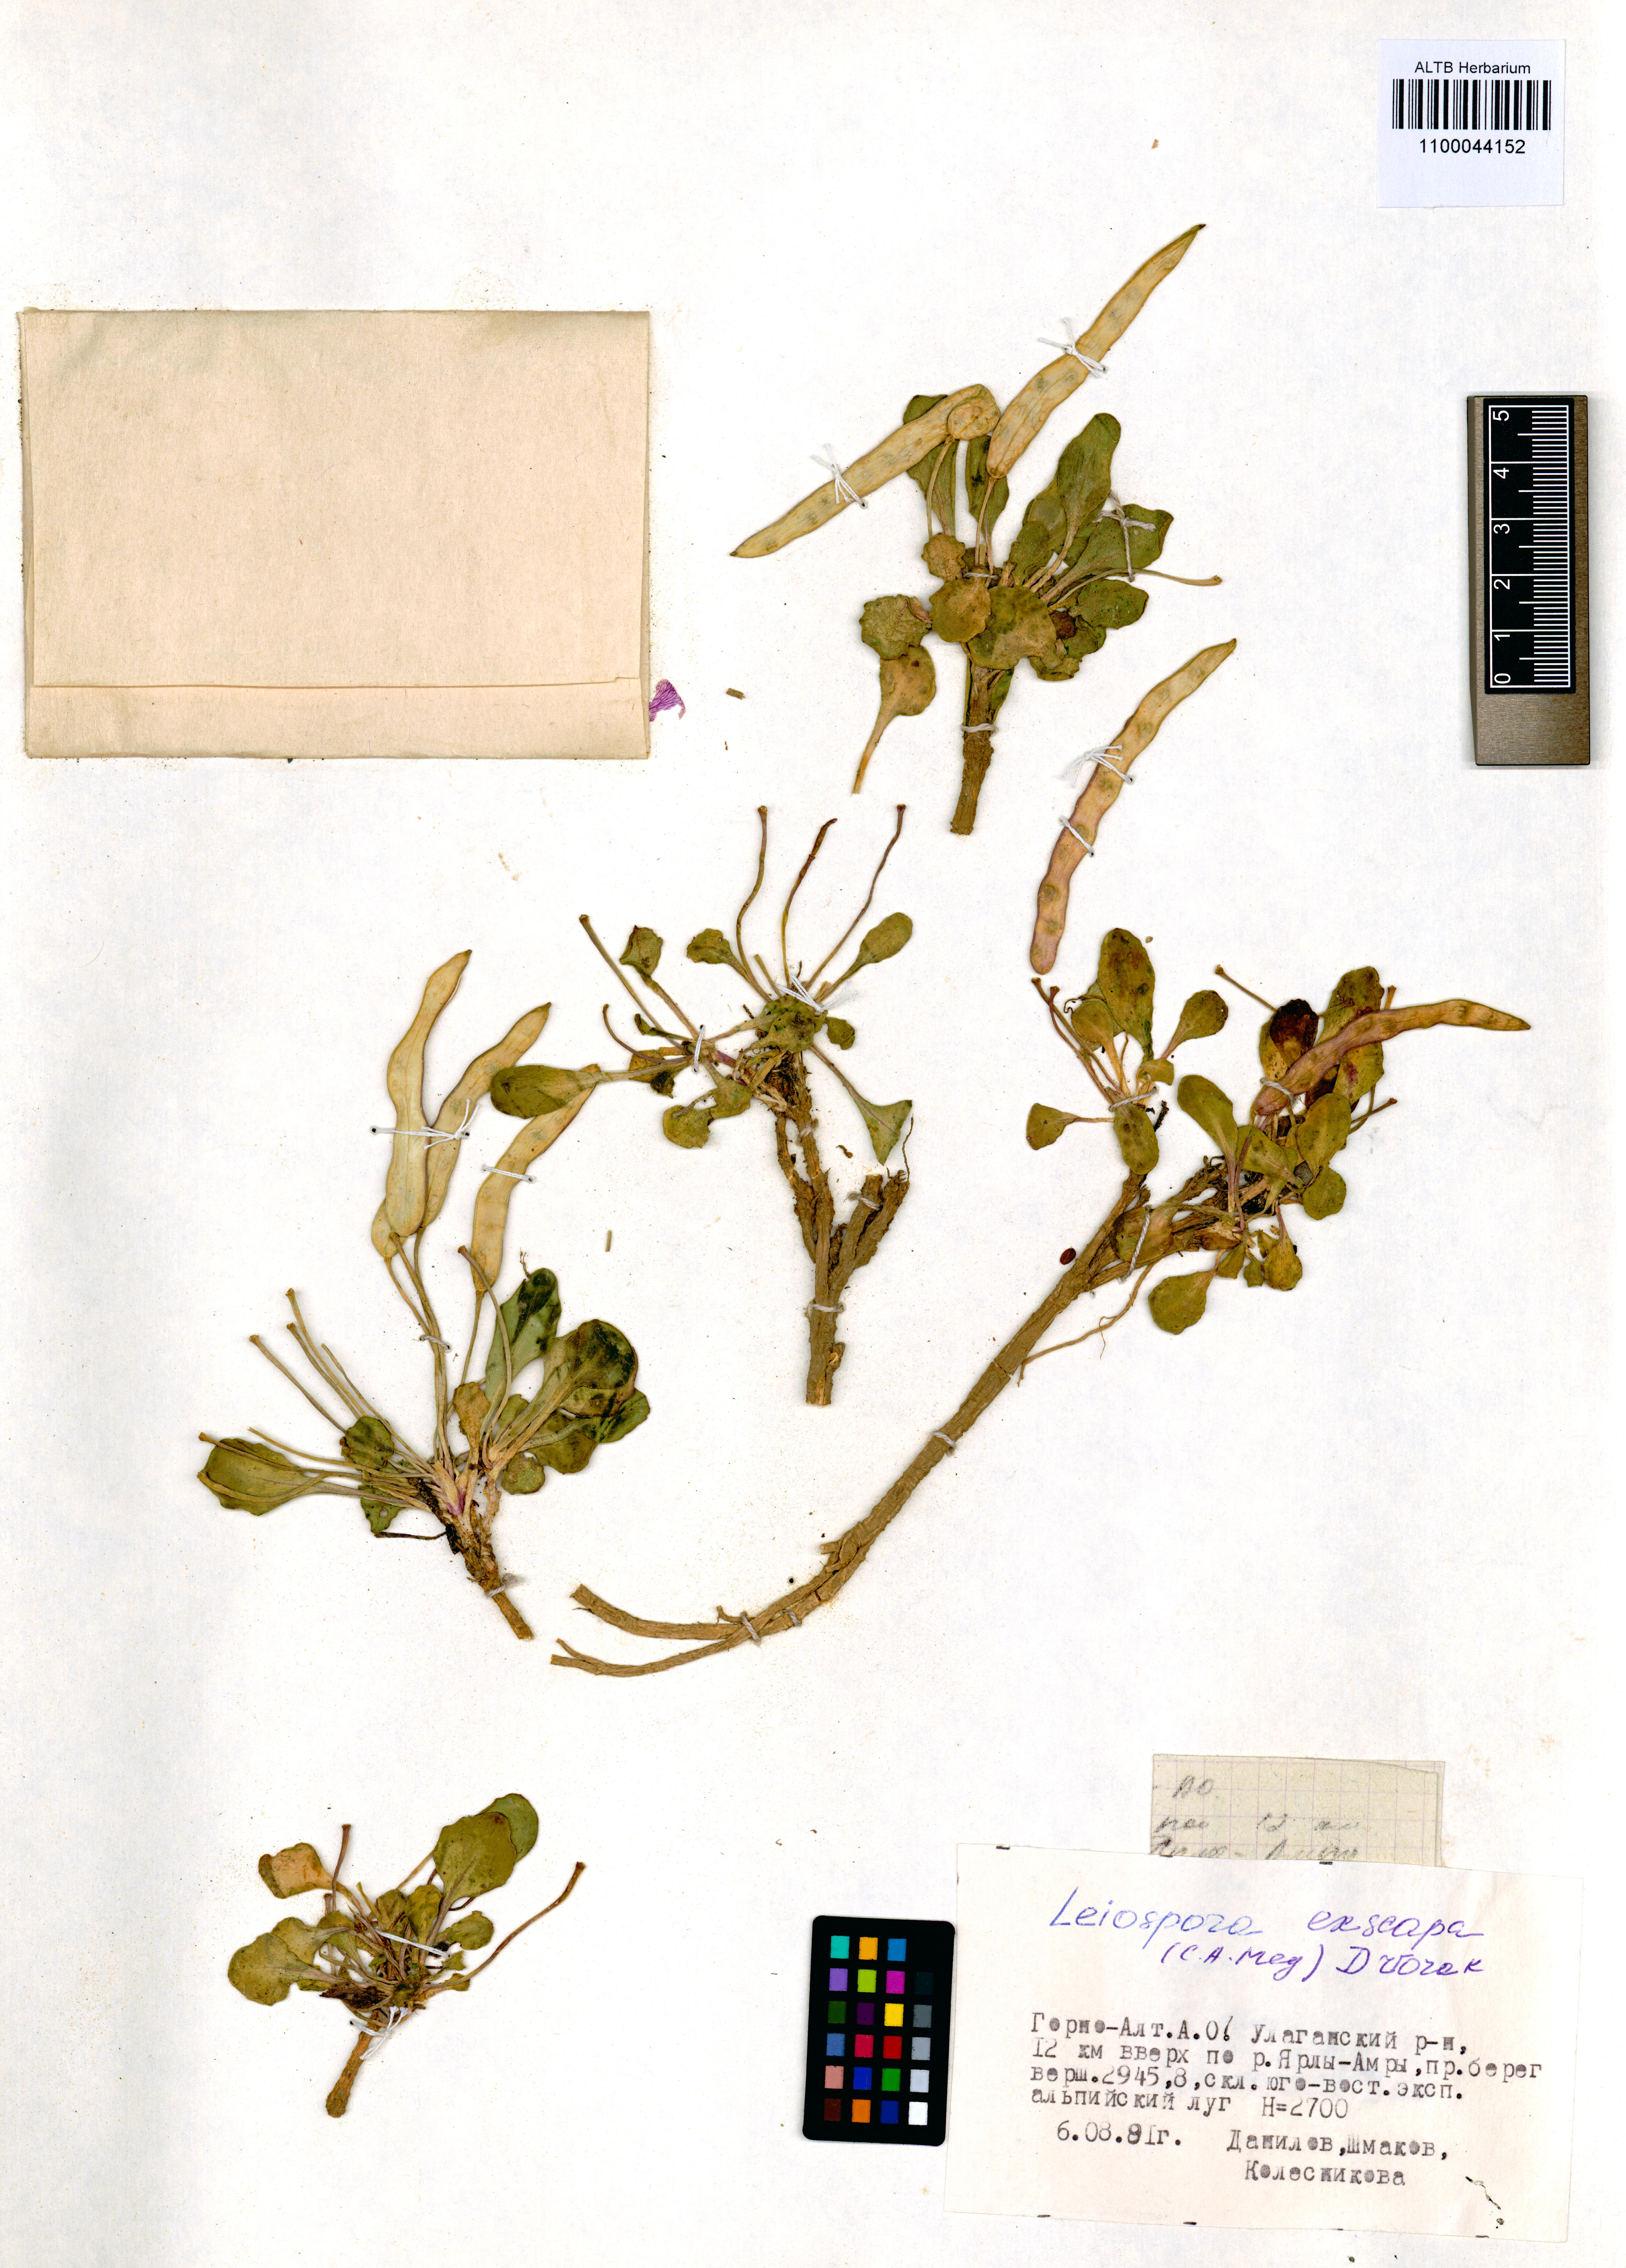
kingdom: Plantae
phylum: Tracheophyta
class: Magnoliopsida
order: Brassicales
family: Brassicaceae
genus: Leiospora
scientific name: Leiospora exscapa
